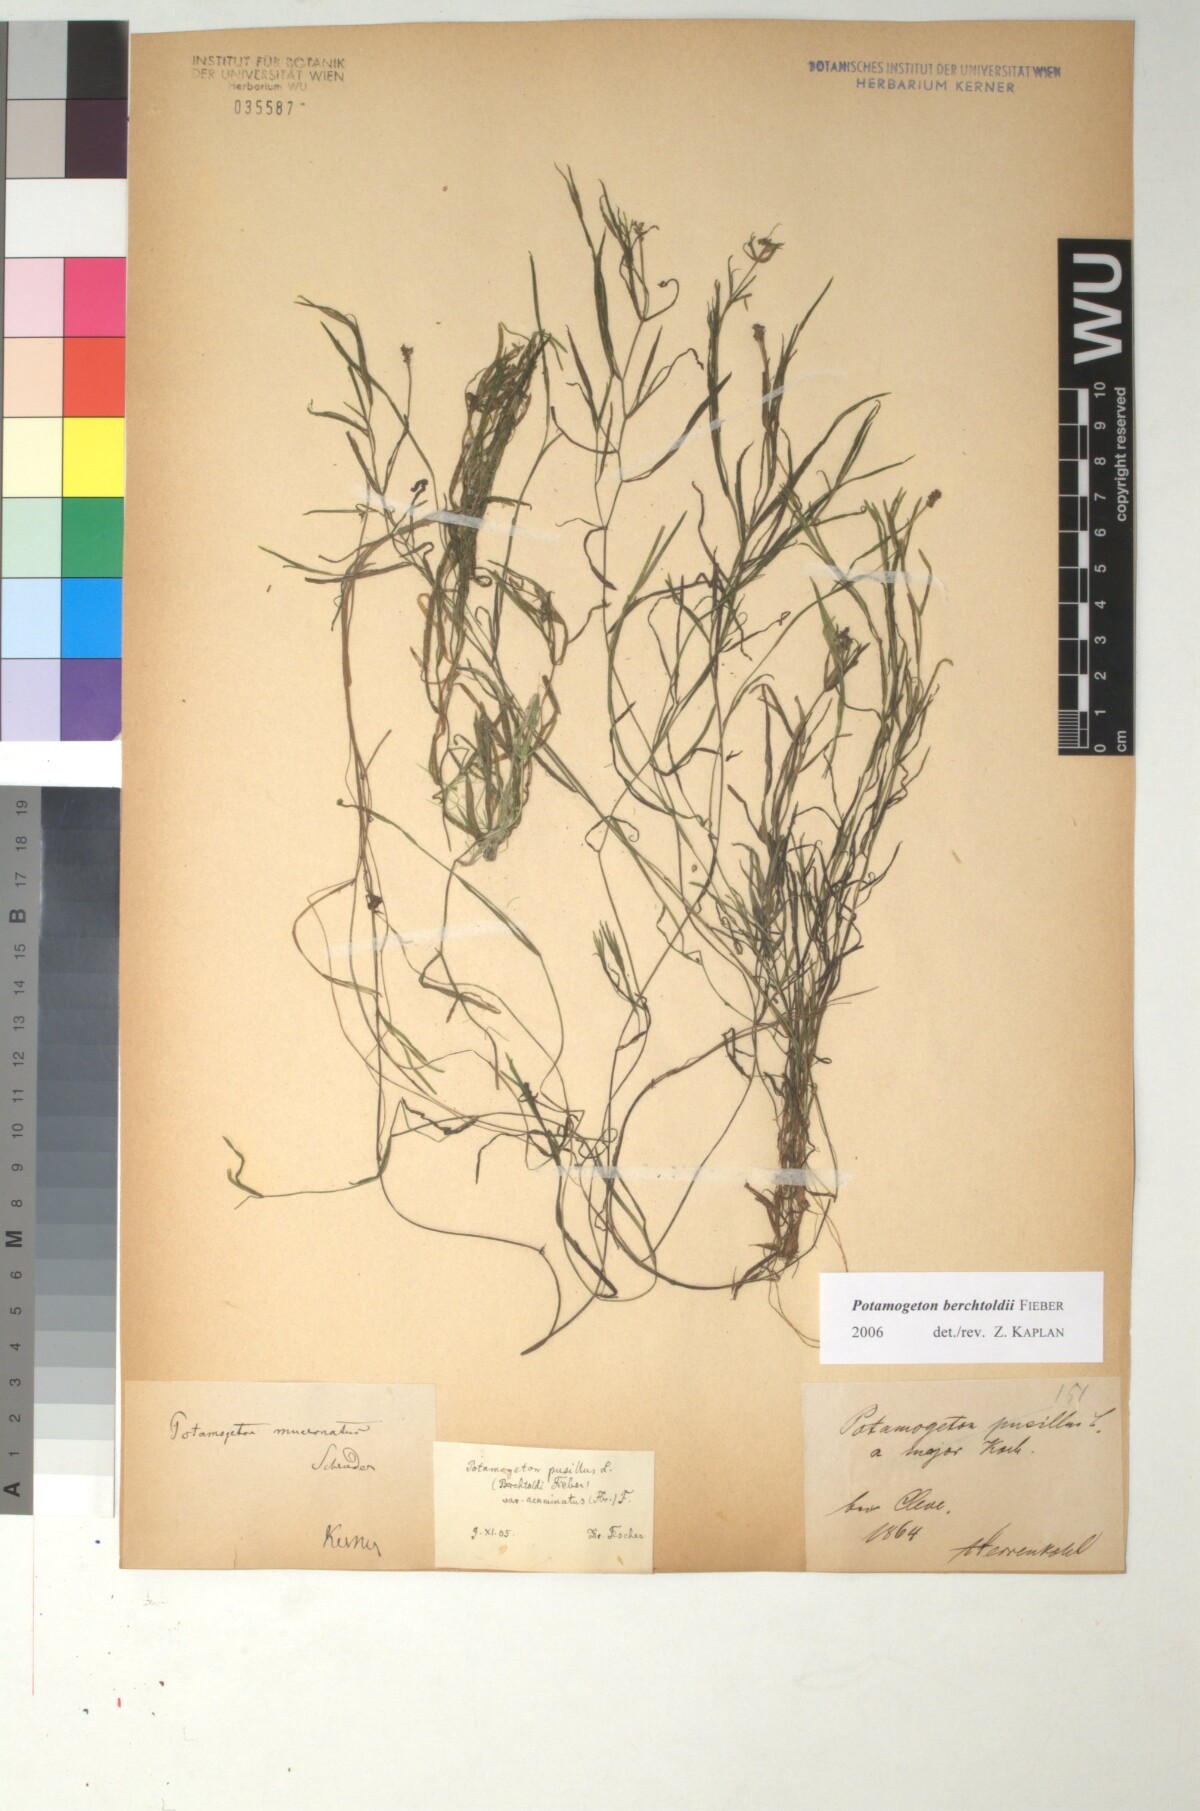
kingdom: Plantae
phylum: Tracheophyta
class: Liliopsida
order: Alismatales
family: Potamogetonaceae
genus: Potamogeton
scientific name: Potamogeton berchtoldii
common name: Small pondweed
